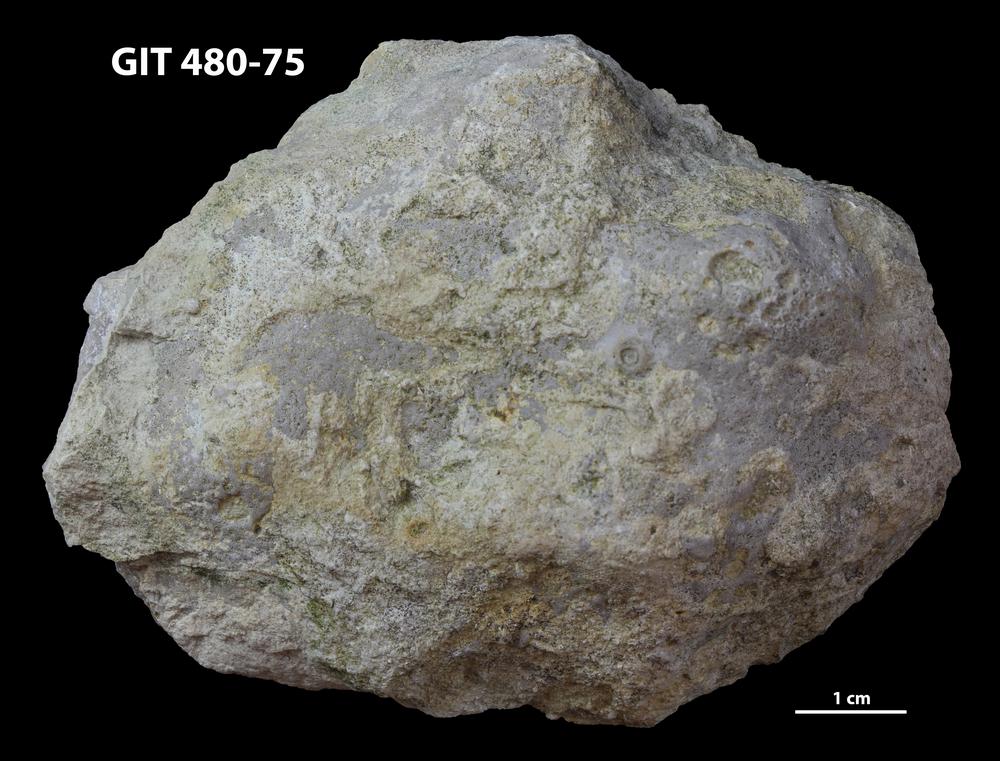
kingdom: Animalia
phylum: Cnidaria
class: Anthozoa
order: Heliolitina
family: Heliolitidae
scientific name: Heliolitidae
